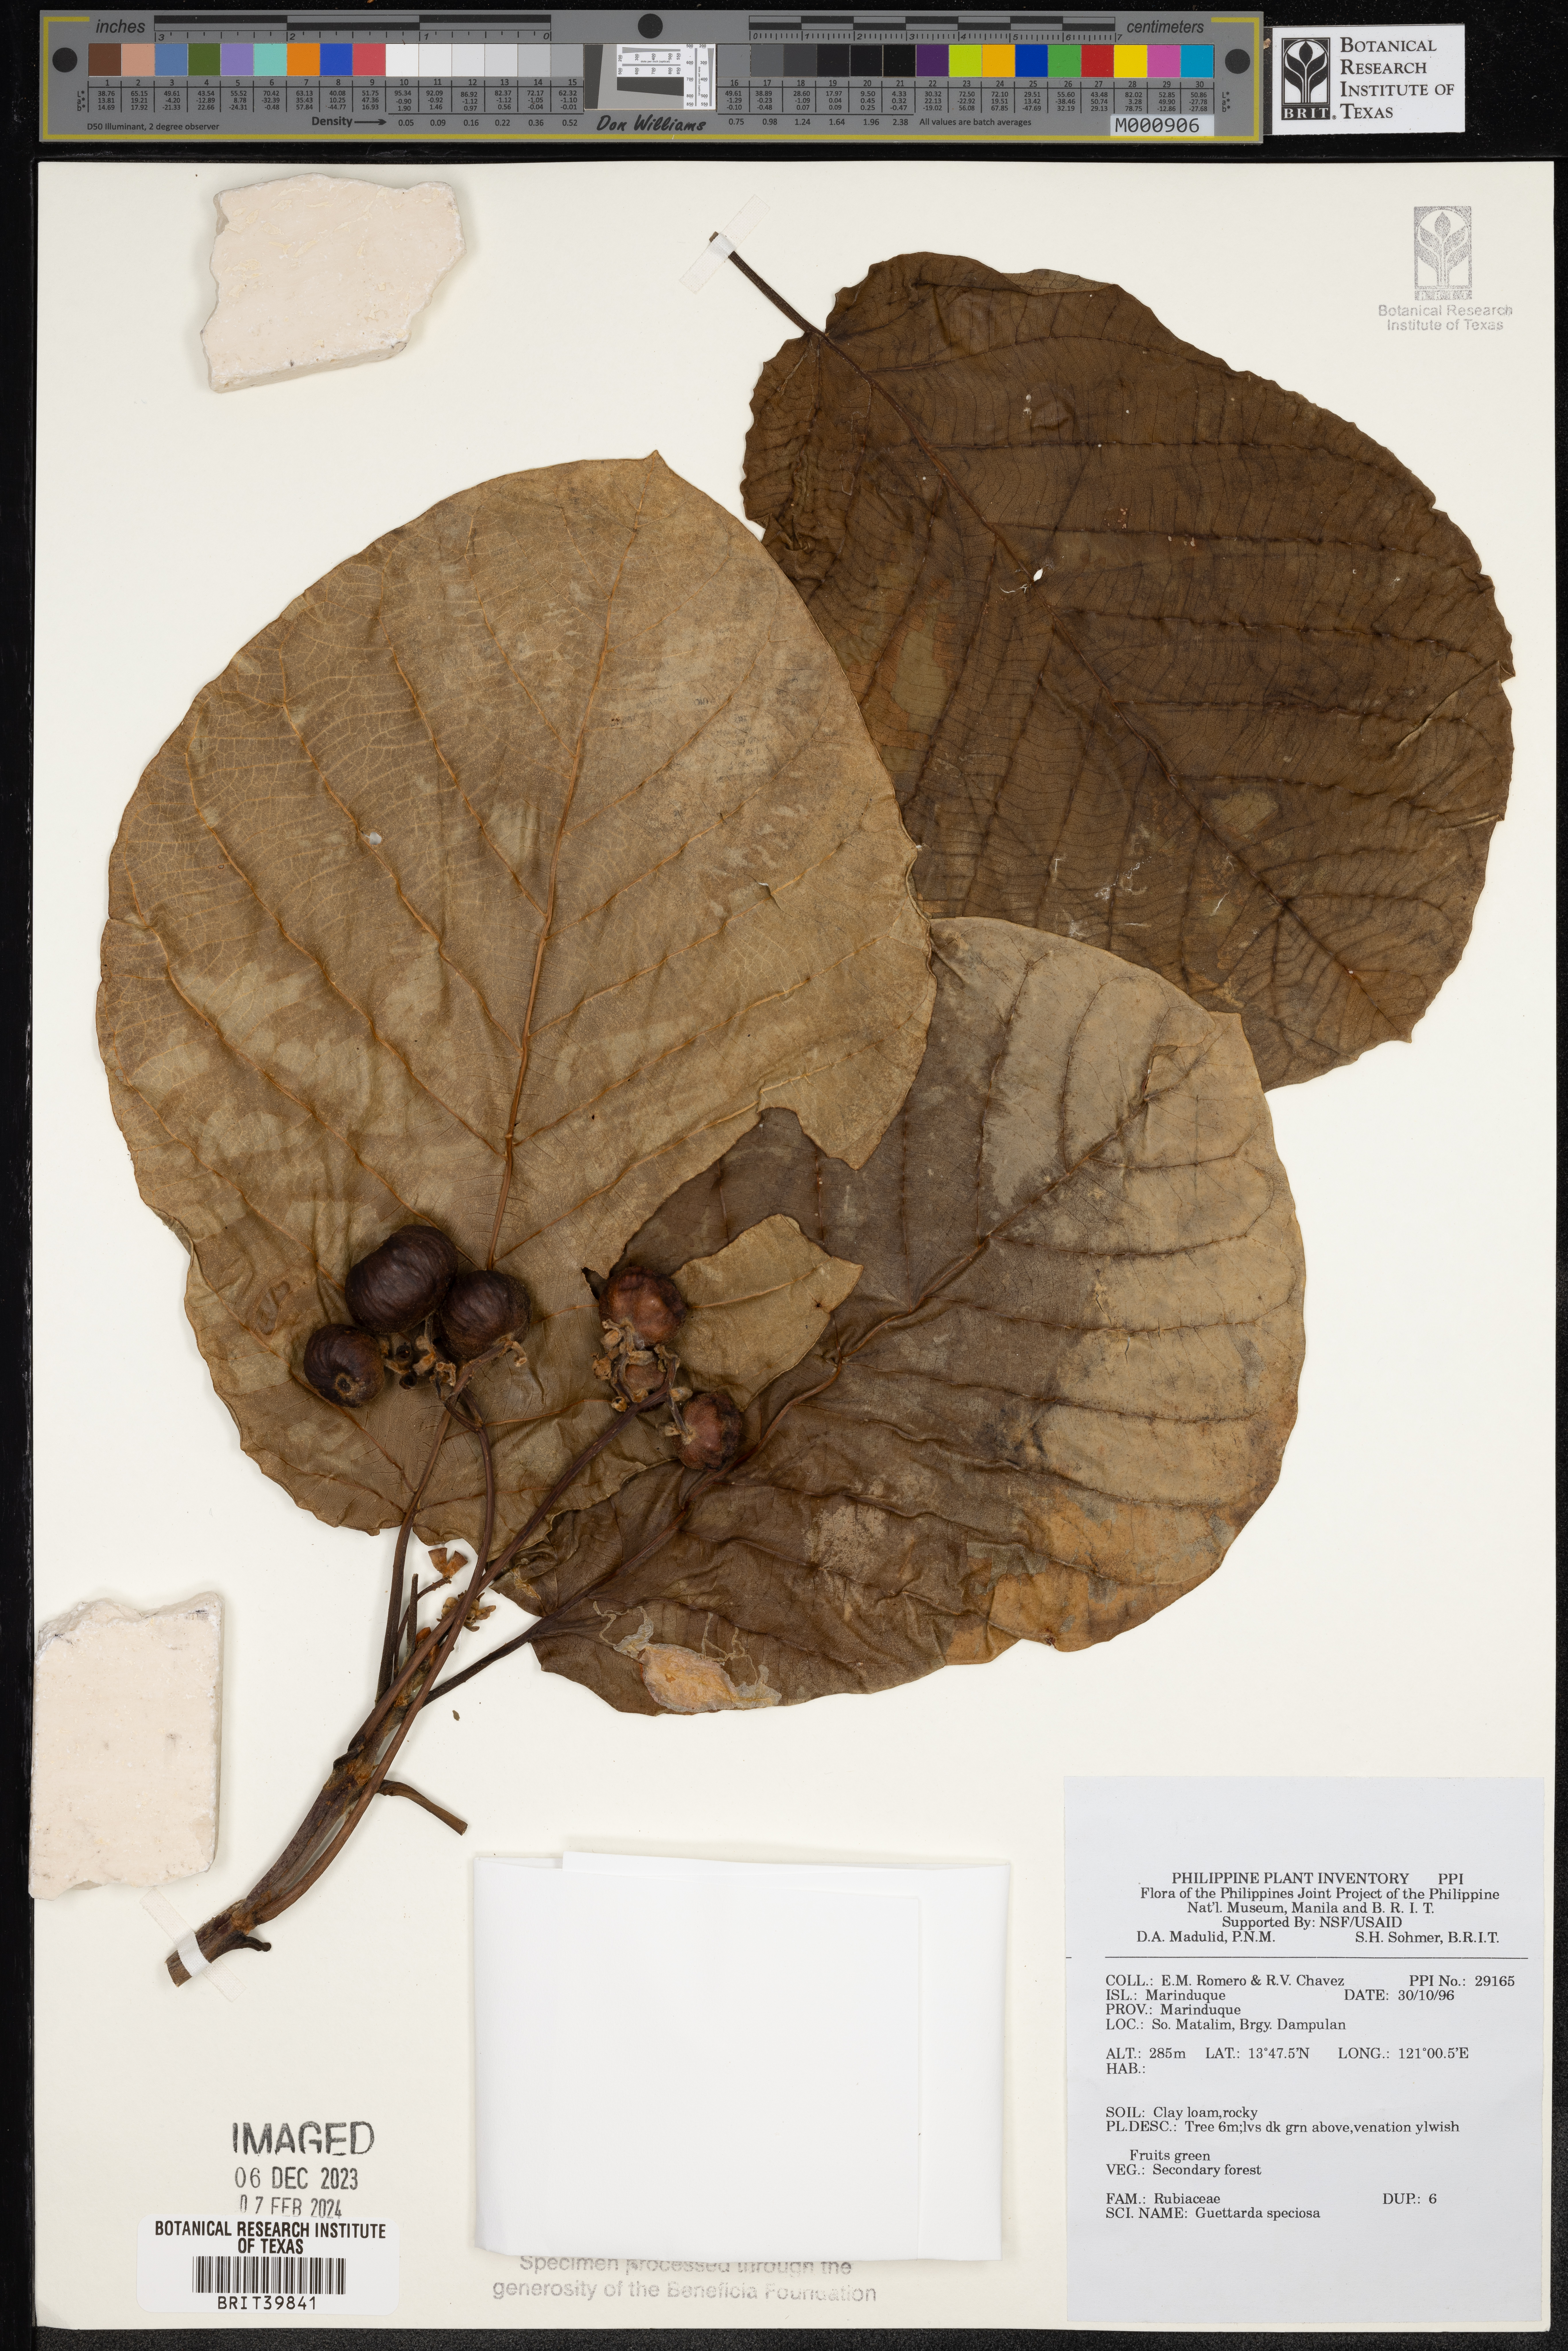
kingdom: Plantae
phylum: Tracheophyta
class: Magnoliopsida
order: Gentianales
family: Rubiaceae
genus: Guettarda
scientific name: Guettarda speciosa
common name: Sea randa
